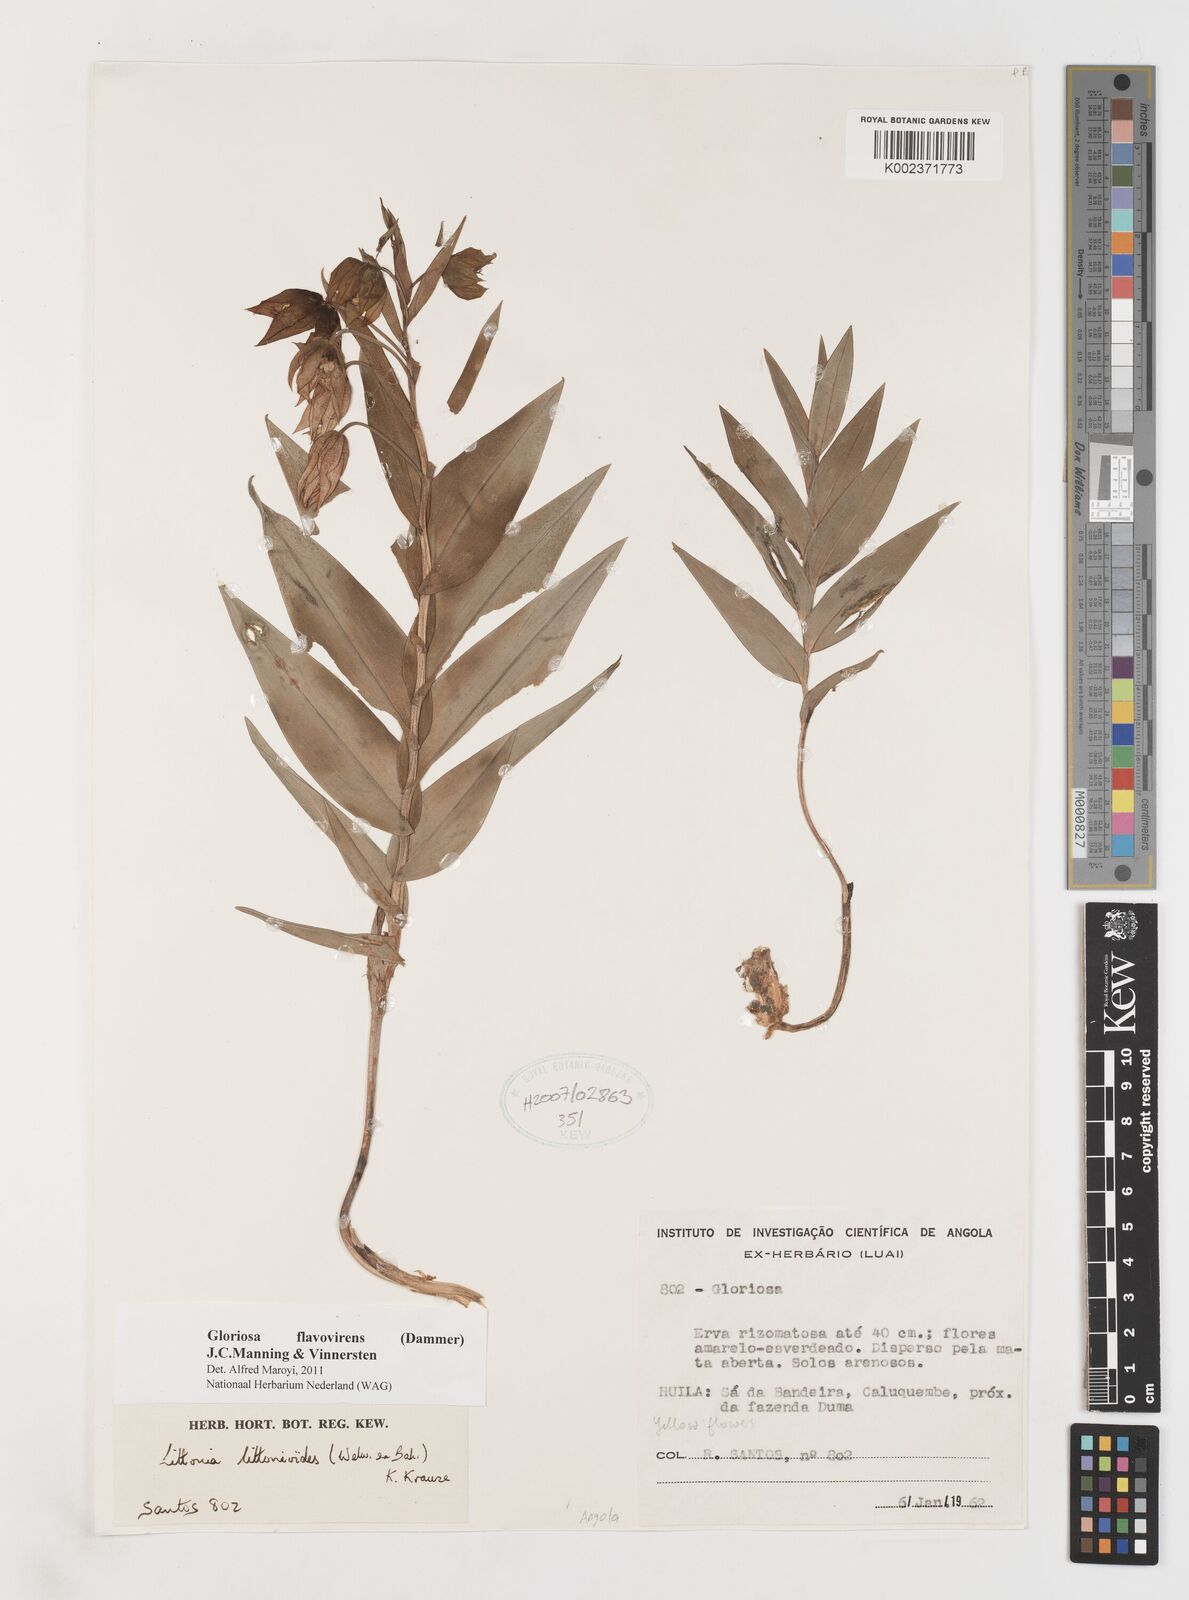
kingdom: Plantae
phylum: Tracheophyta
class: Liliopsida
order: Liliales
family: Colchicaceae
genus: Gloriosa
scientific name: Gloriosa flavovirens
